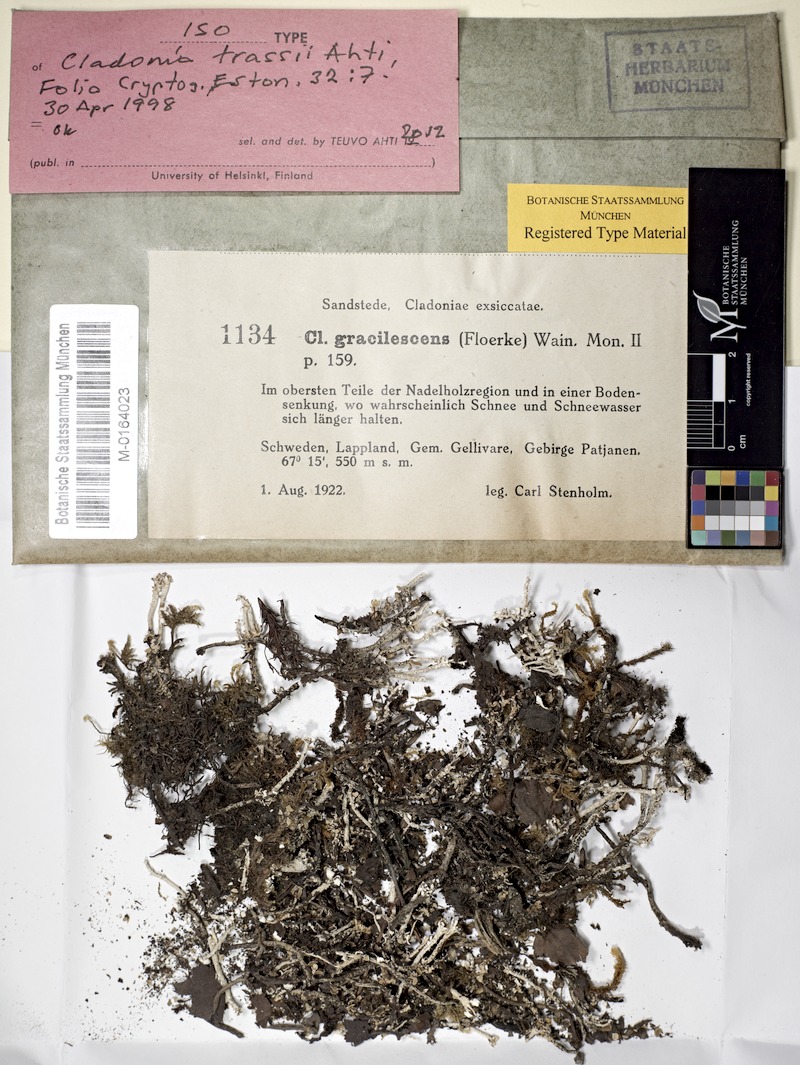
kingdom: Fungi
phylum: Ascomycota
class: Lecanoromycetes
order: Lecanorales
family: Cladoniaceae
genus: Cladonia
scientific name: Cladonia trassii
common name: Upright mountain cladonia
